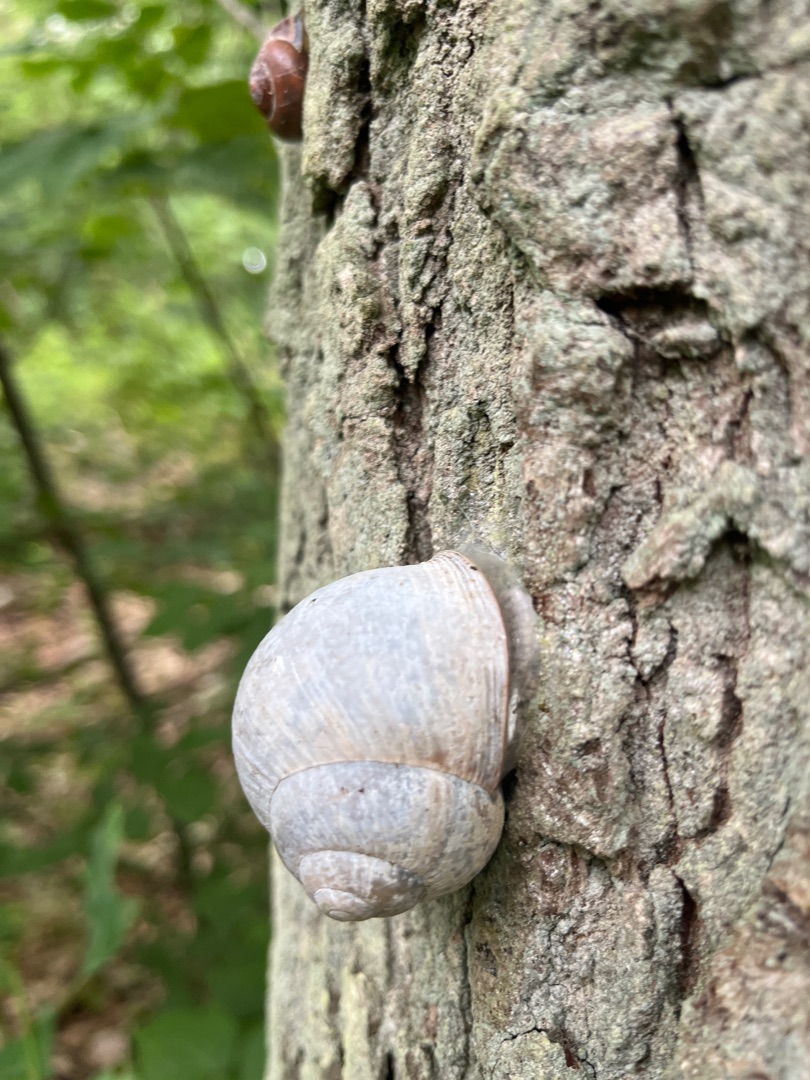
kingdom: Animalia
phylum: Mollusca
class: Gastropoda
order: Stylommatophora
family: Helicidae
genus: Helix
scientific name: Helix pomatia
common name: Vinbjergsnegl
